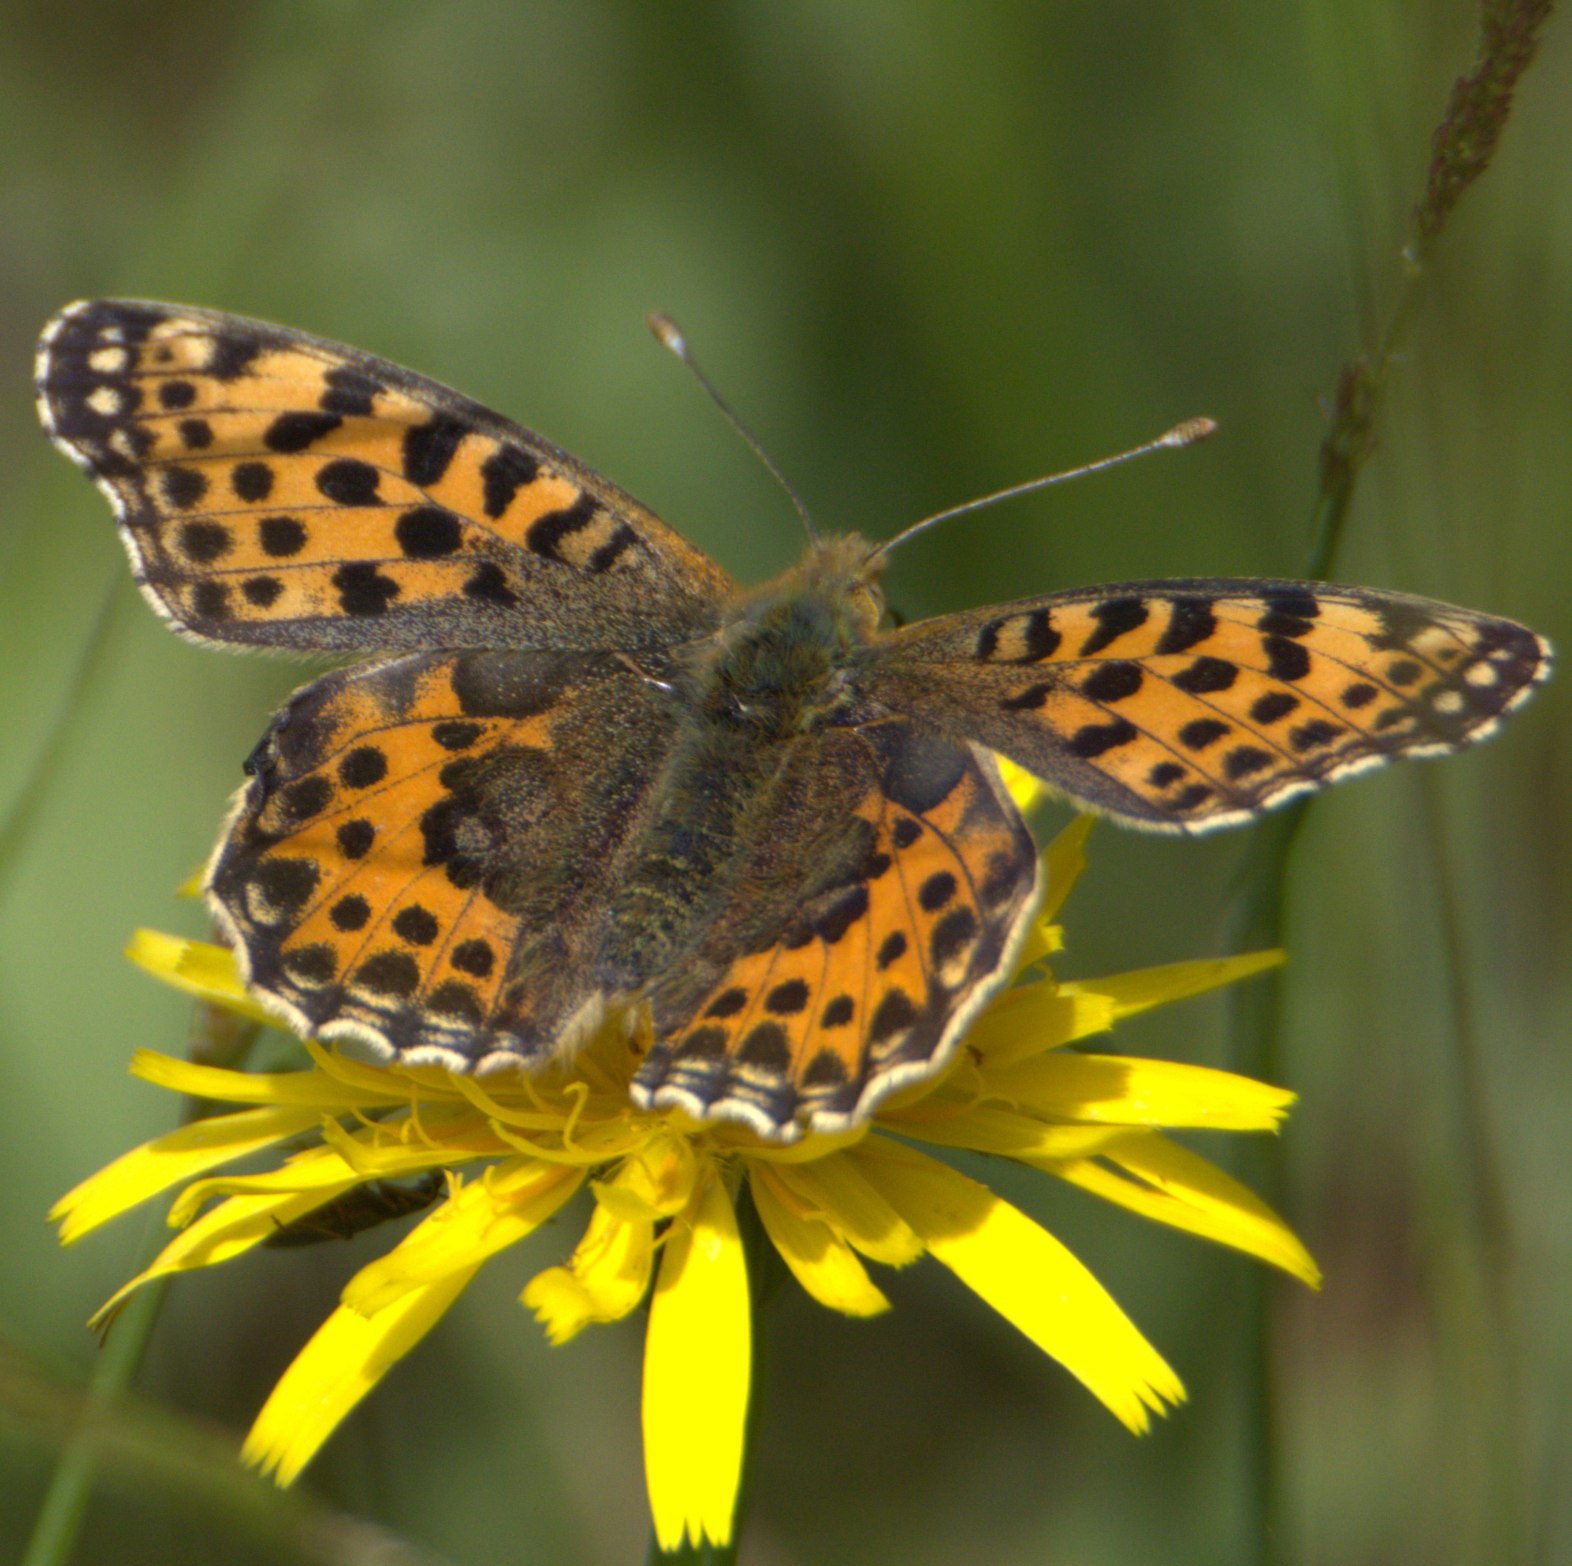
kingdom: Animalia
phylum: Arthropoda
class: Insecta
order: Lepidoptera
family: Nymphalidae
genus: Issoria
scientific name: Issoria lathonia
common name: Storplettet perlemorsommerfugl
